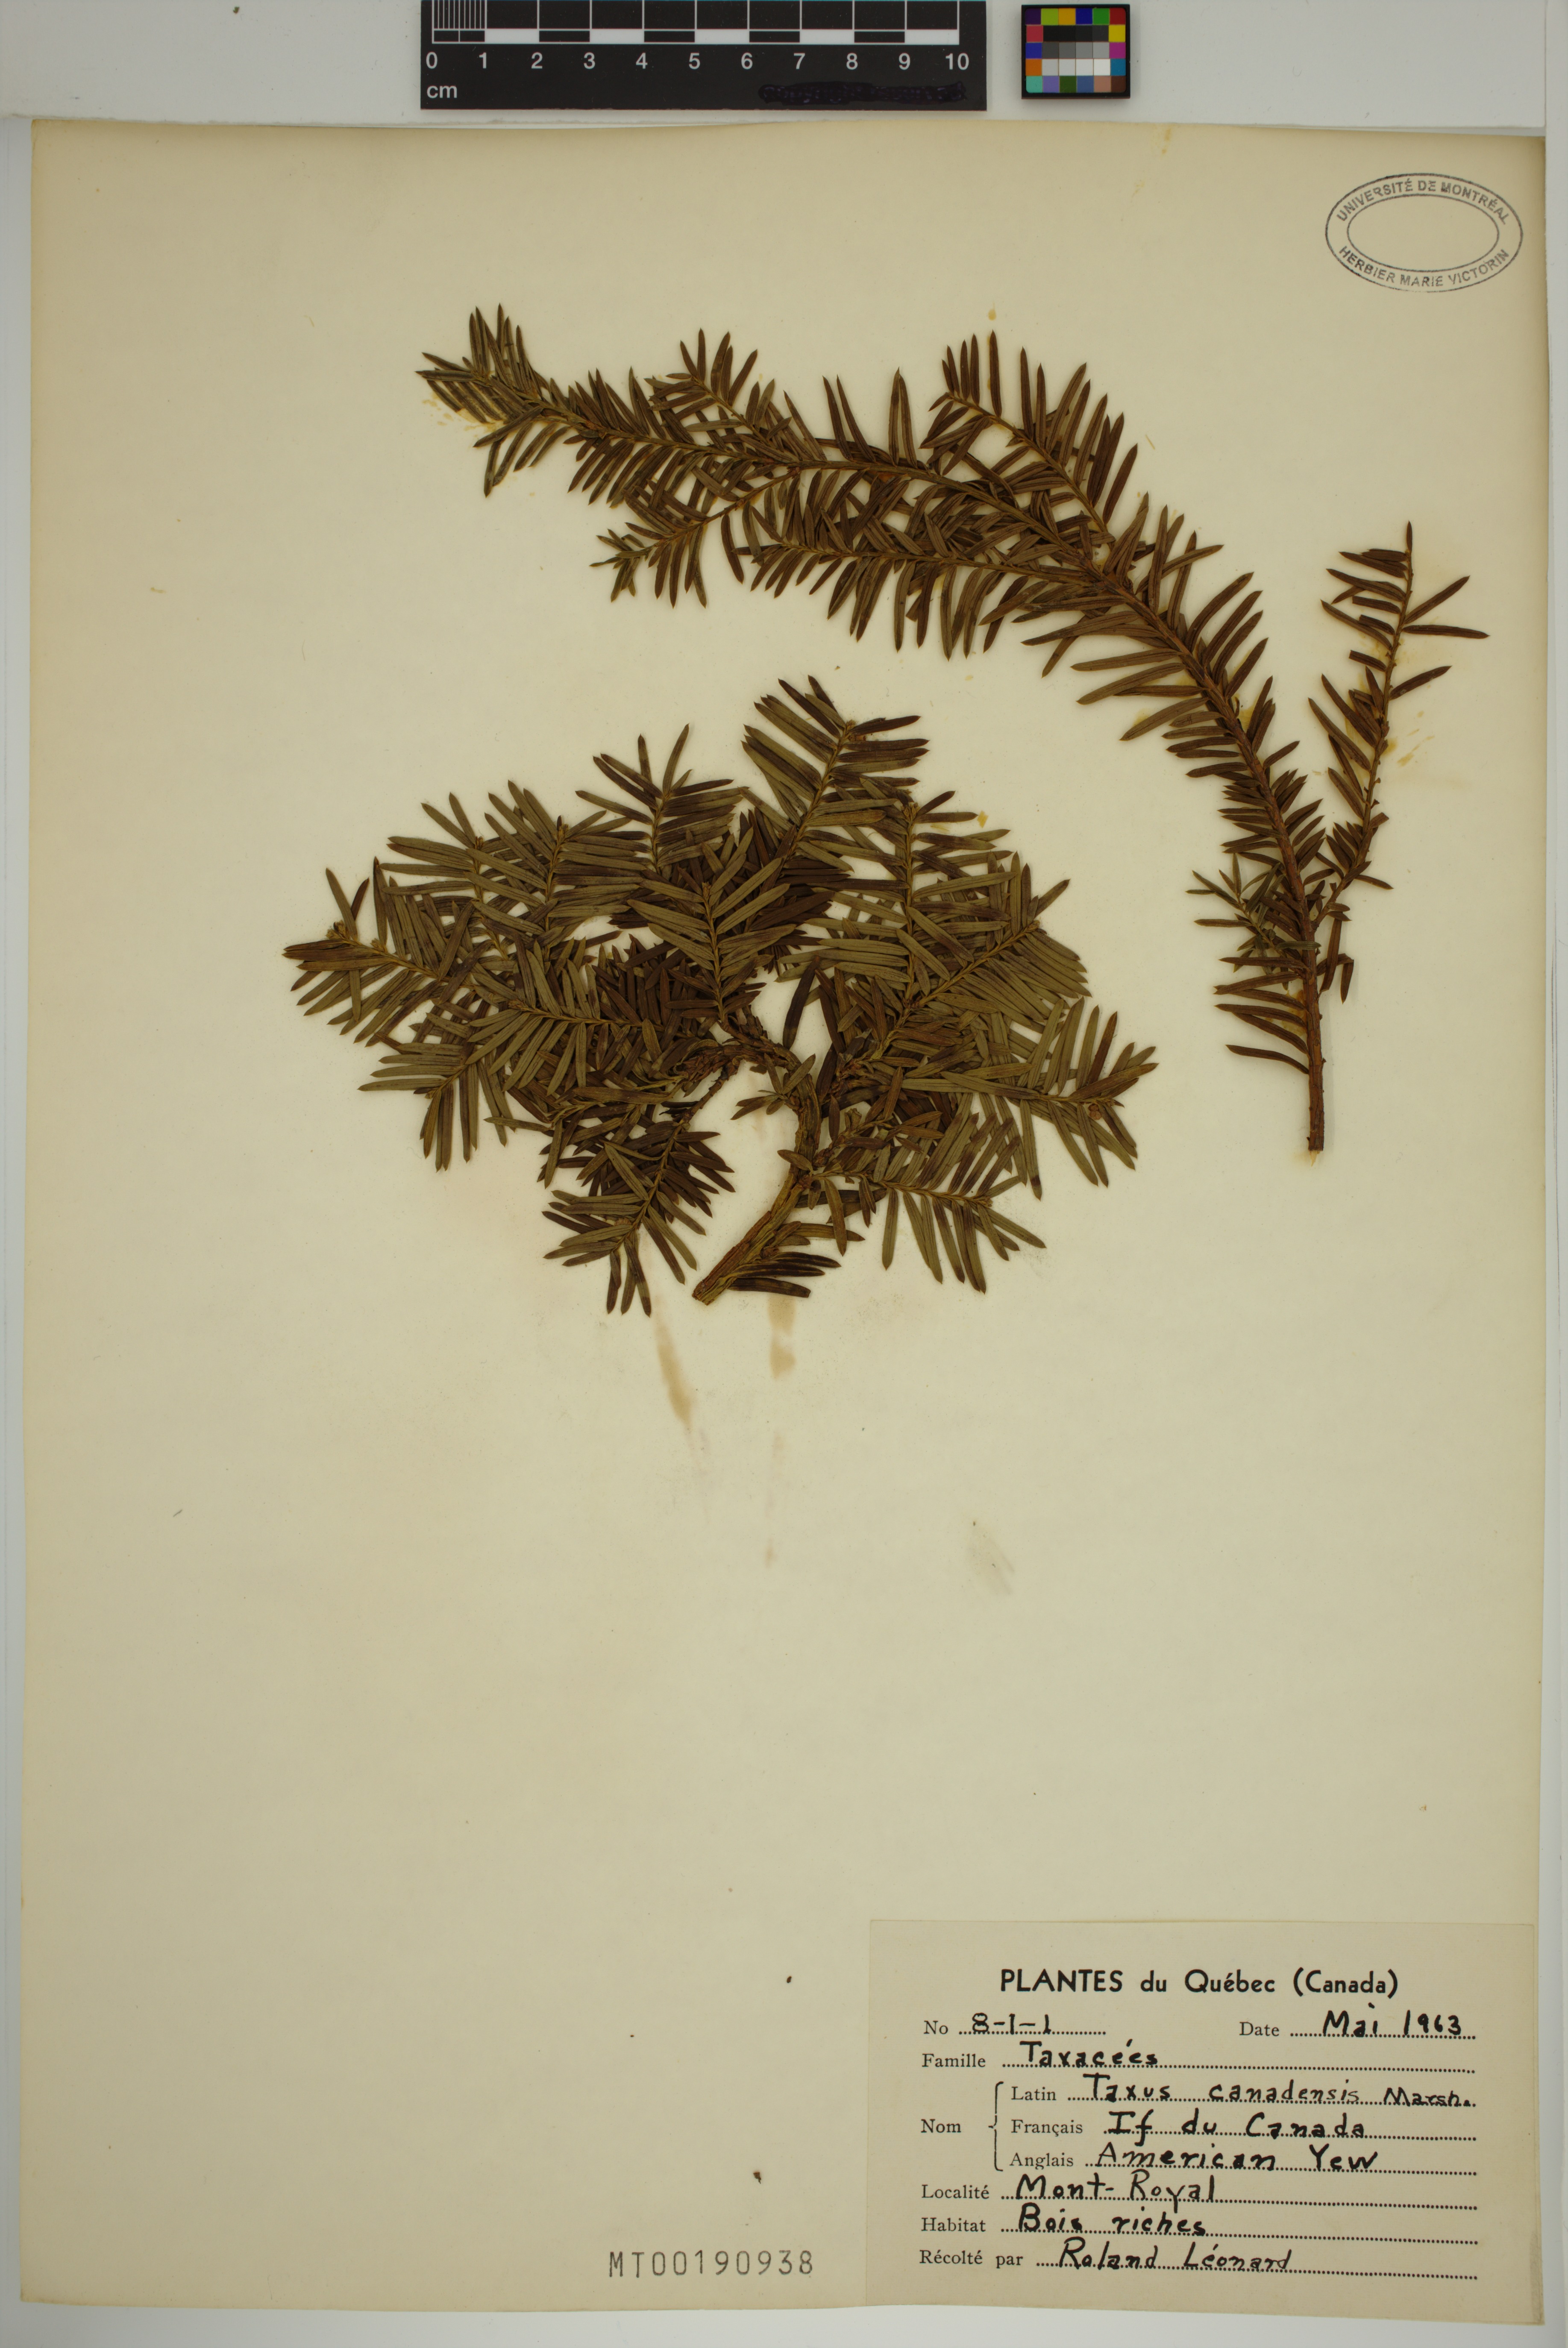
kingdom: Plantae
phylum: Tracheophyta
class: Pinopsida
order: Pinales
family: Taxaceae
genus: Taxus
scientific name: Taxus canadensis
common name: American yew
